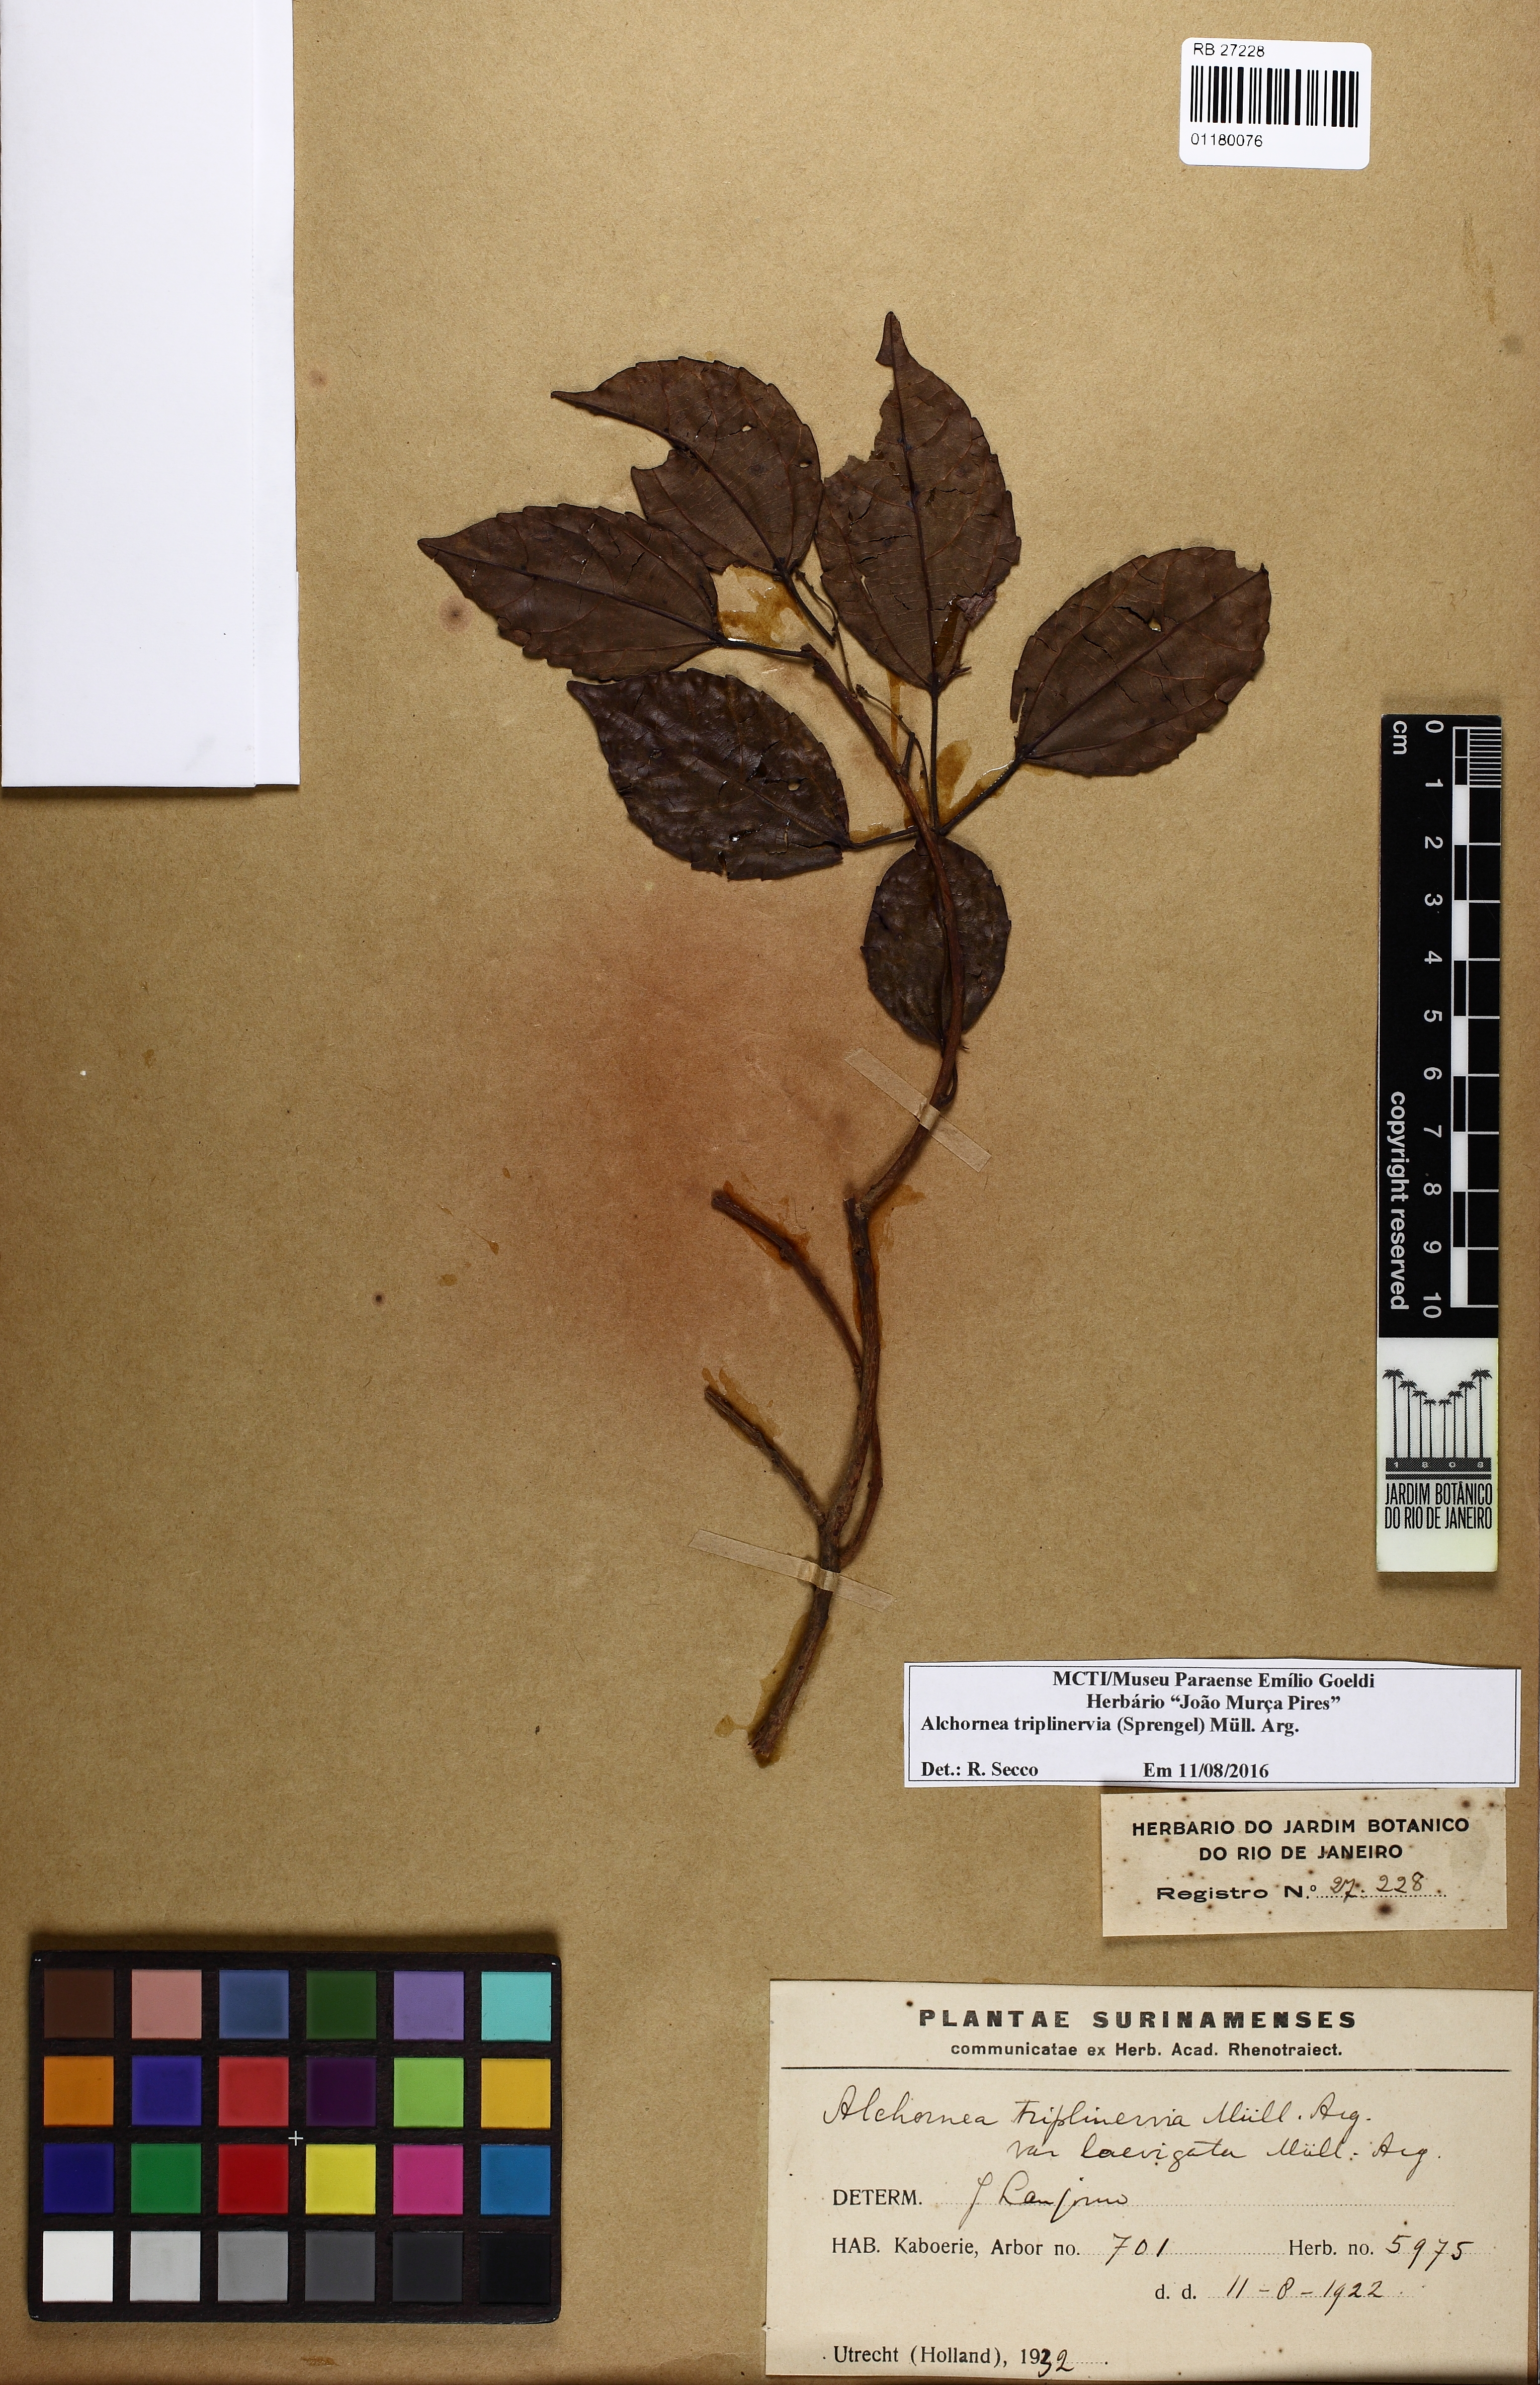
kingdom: Plantae
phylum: Tracheophyta
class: Magnoliopsida
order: Malpighiales
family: Euphorbiaceae
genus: Alchornea
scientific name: Alchornea triplinervia
